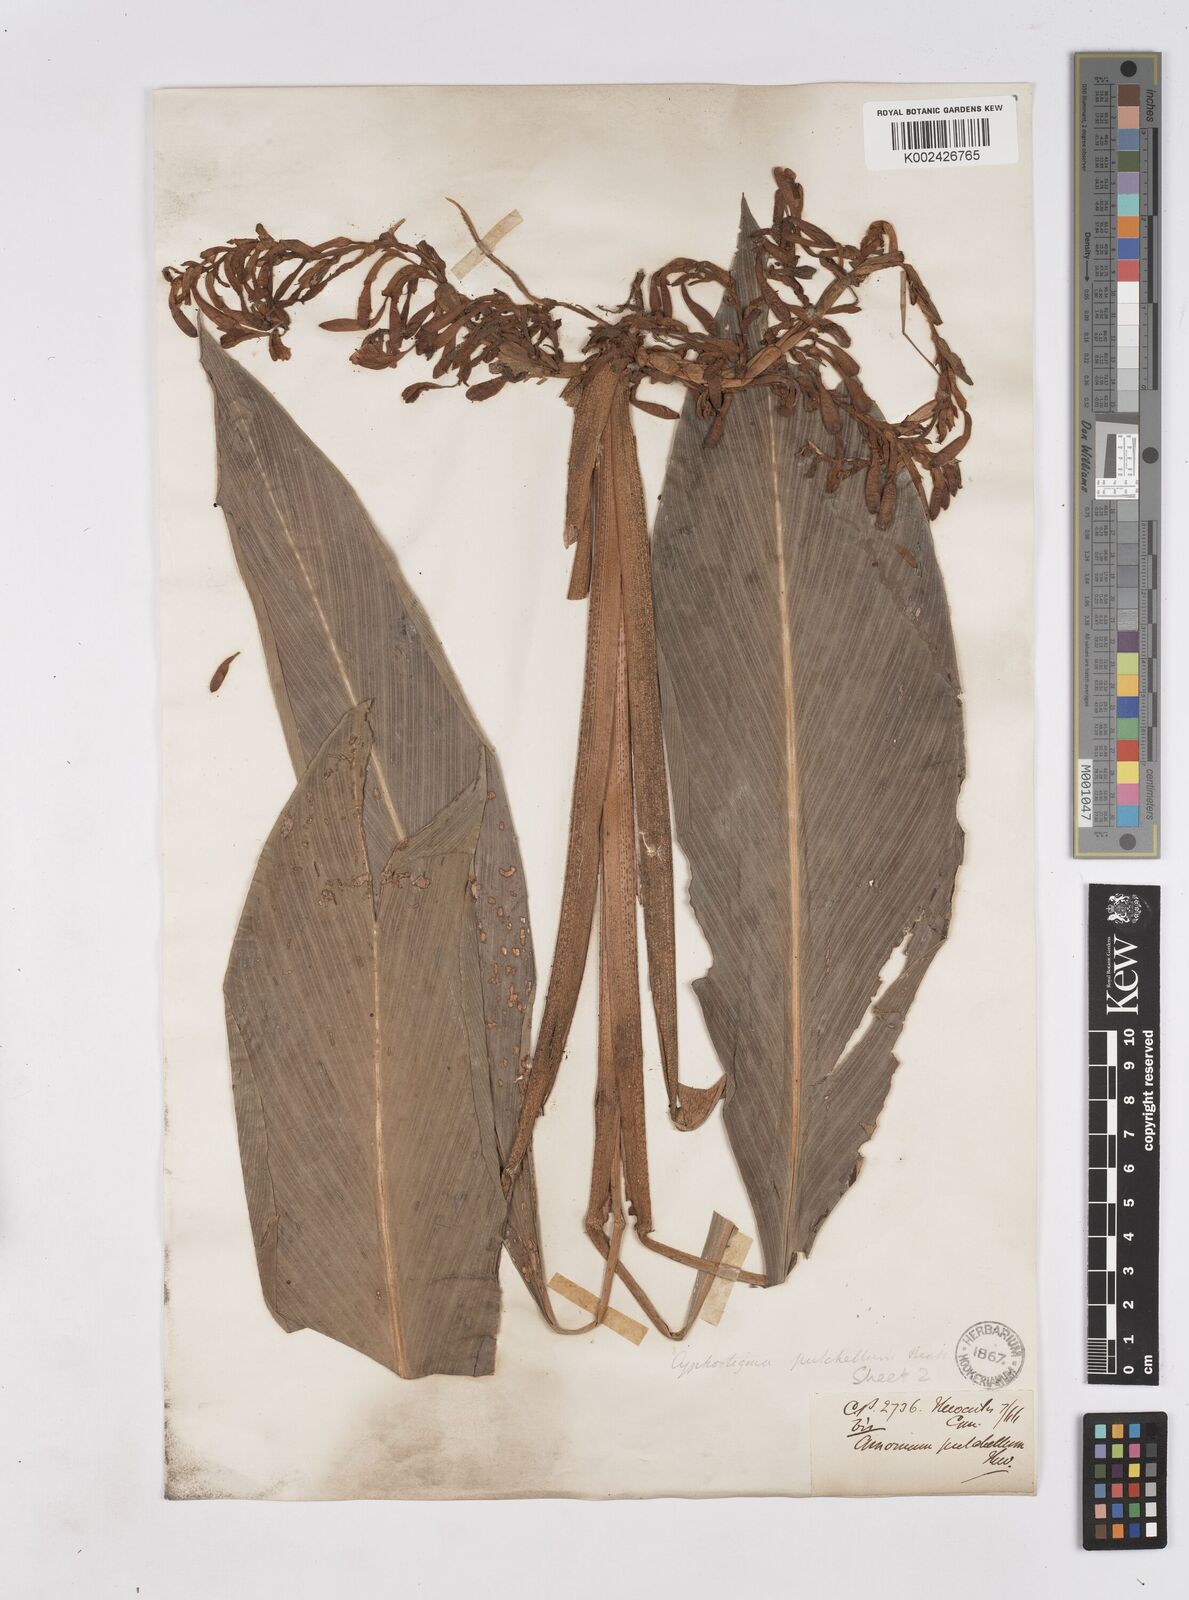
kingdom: Plantae
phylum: Tracheophyta
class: Liliopsida
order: Zingiberales
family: Zingiberaceae
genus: Cyphostigma
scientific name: Cyphostigma pulchellum
